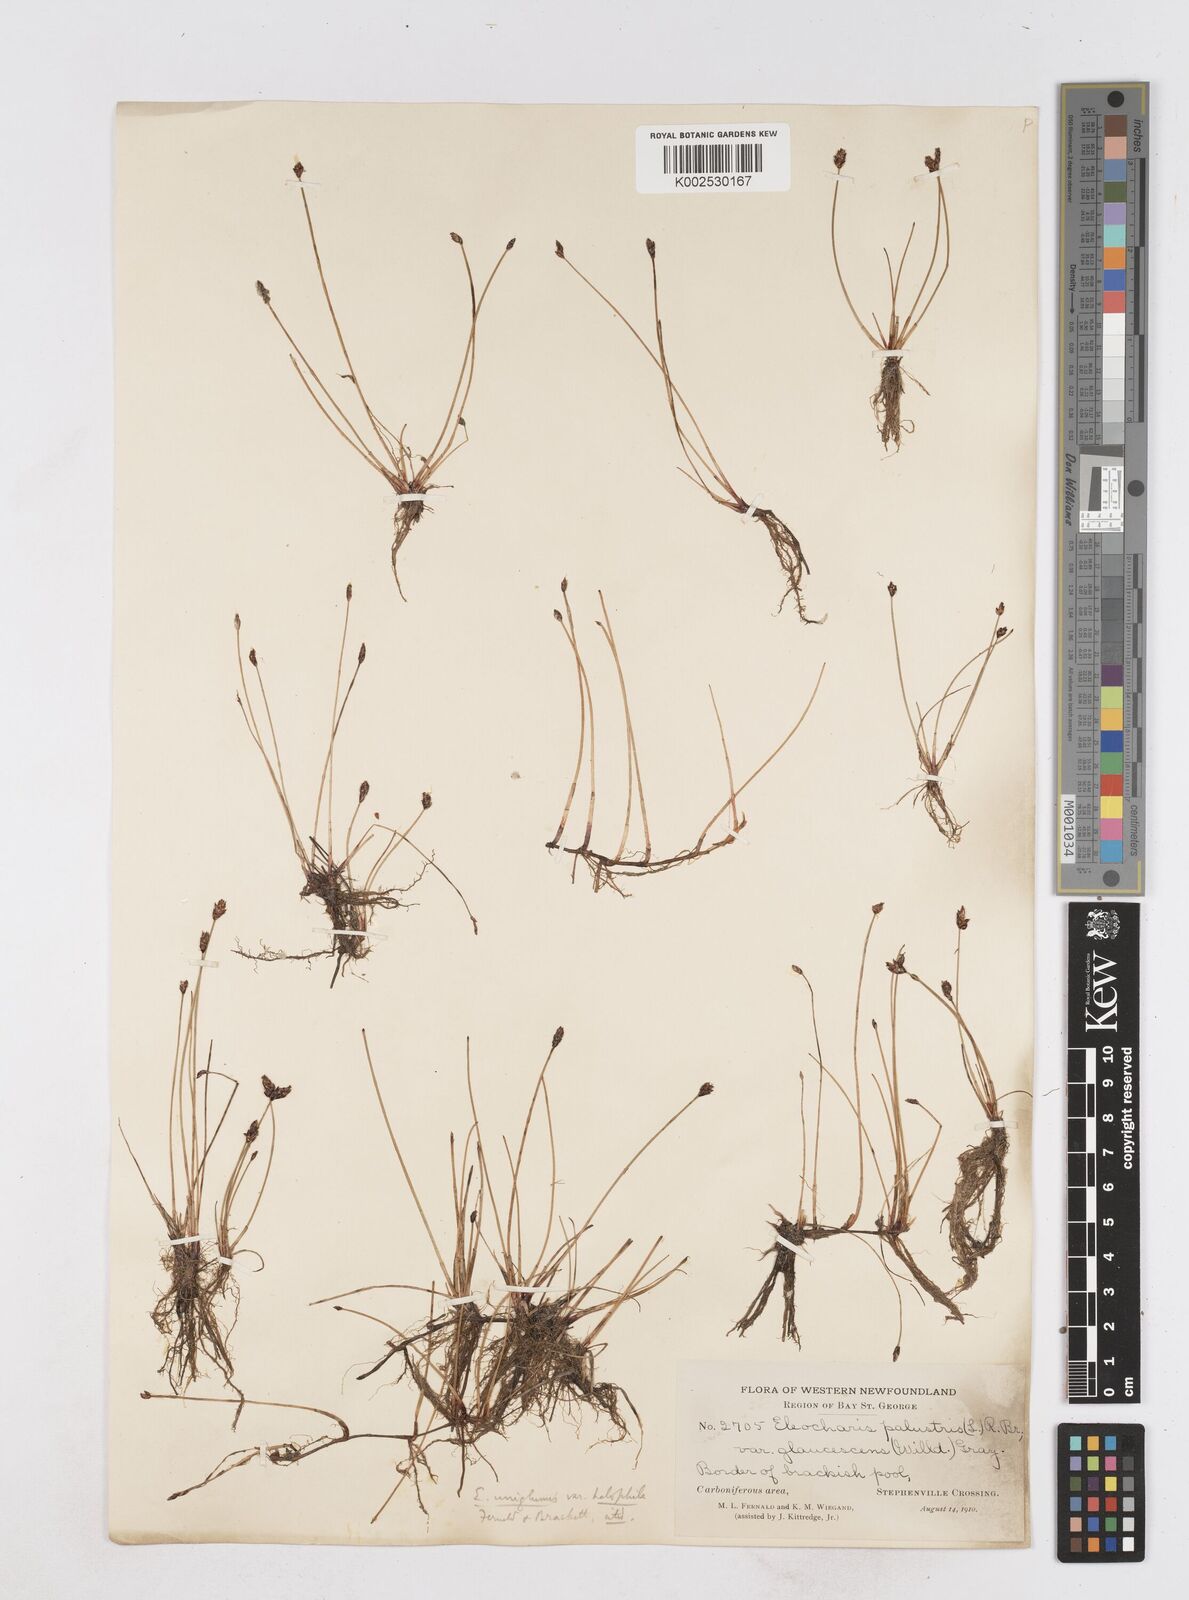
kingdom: Plantae
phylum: Tracheophyta
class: Liliopsida
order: Poales
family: Cyperaceae
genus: Eleocharis
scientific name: Eleocharis uniglumis
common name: Slender spike-rush
